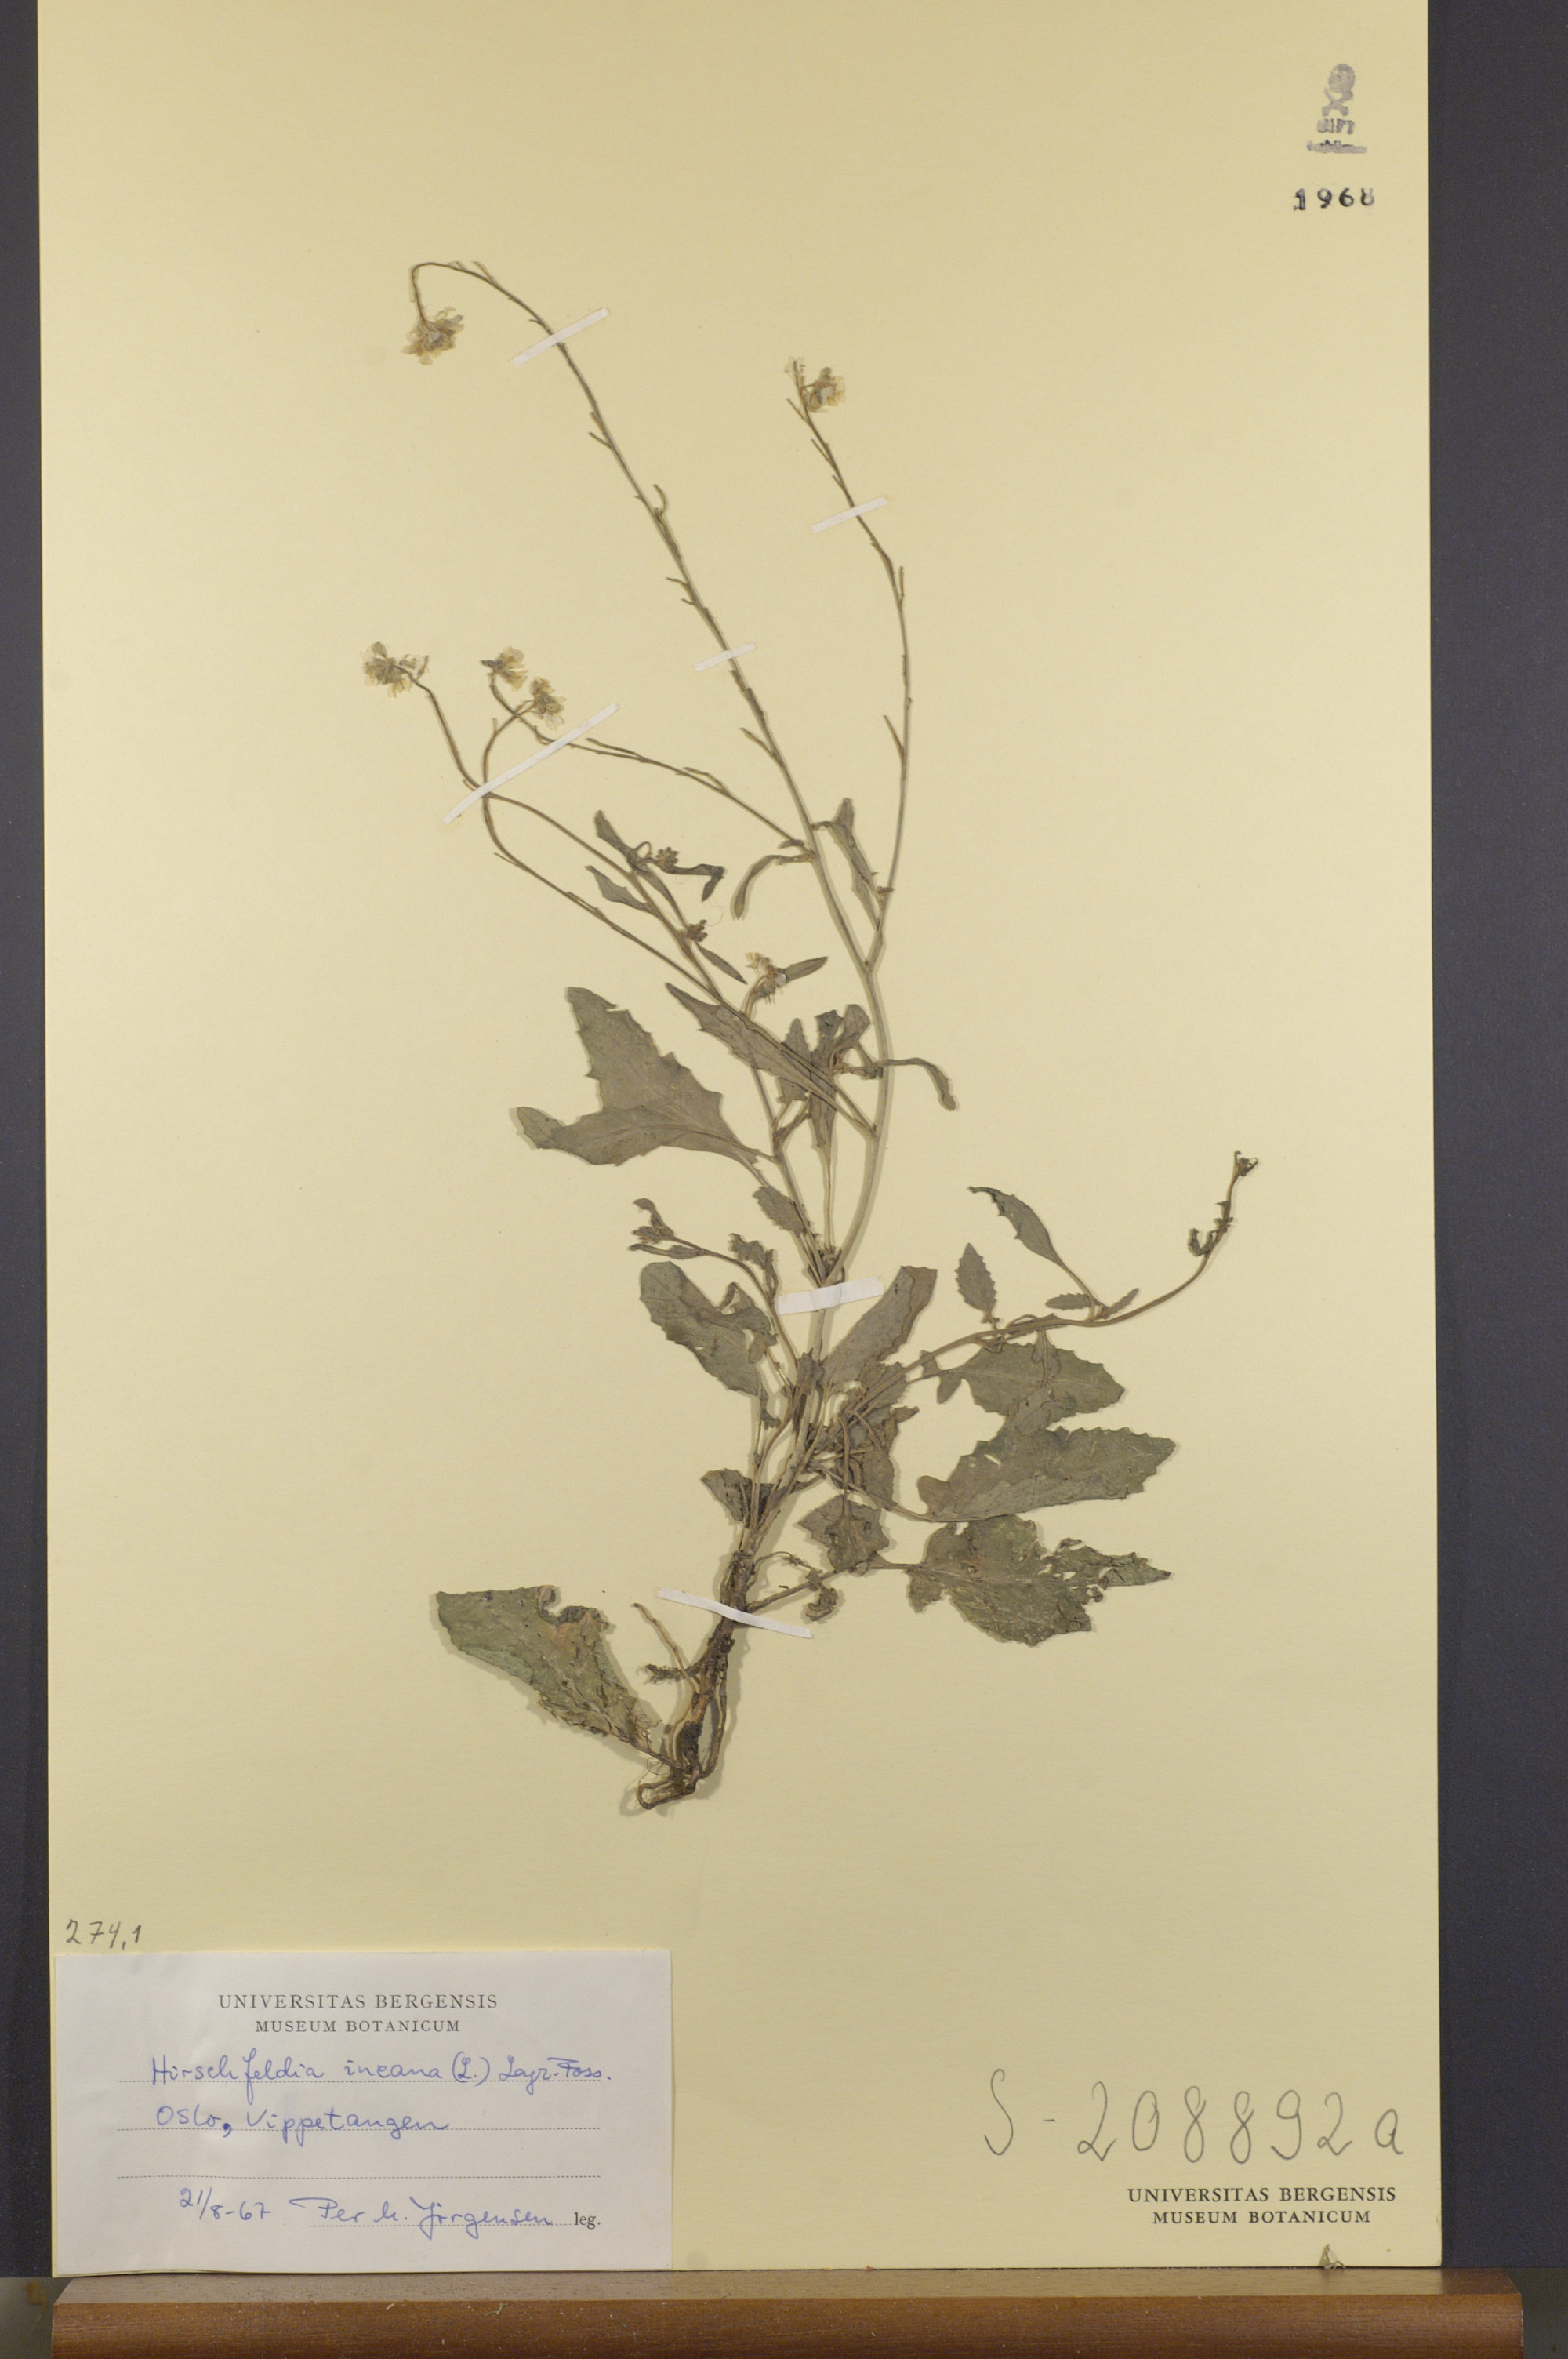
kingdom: Plantae
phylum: Tracheophyta
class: Magnoliopsida
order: Brassicales
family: Brassicaceae
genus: Hirschfeldia
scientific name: Hirschfeldia incana
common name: Hoary mustard
